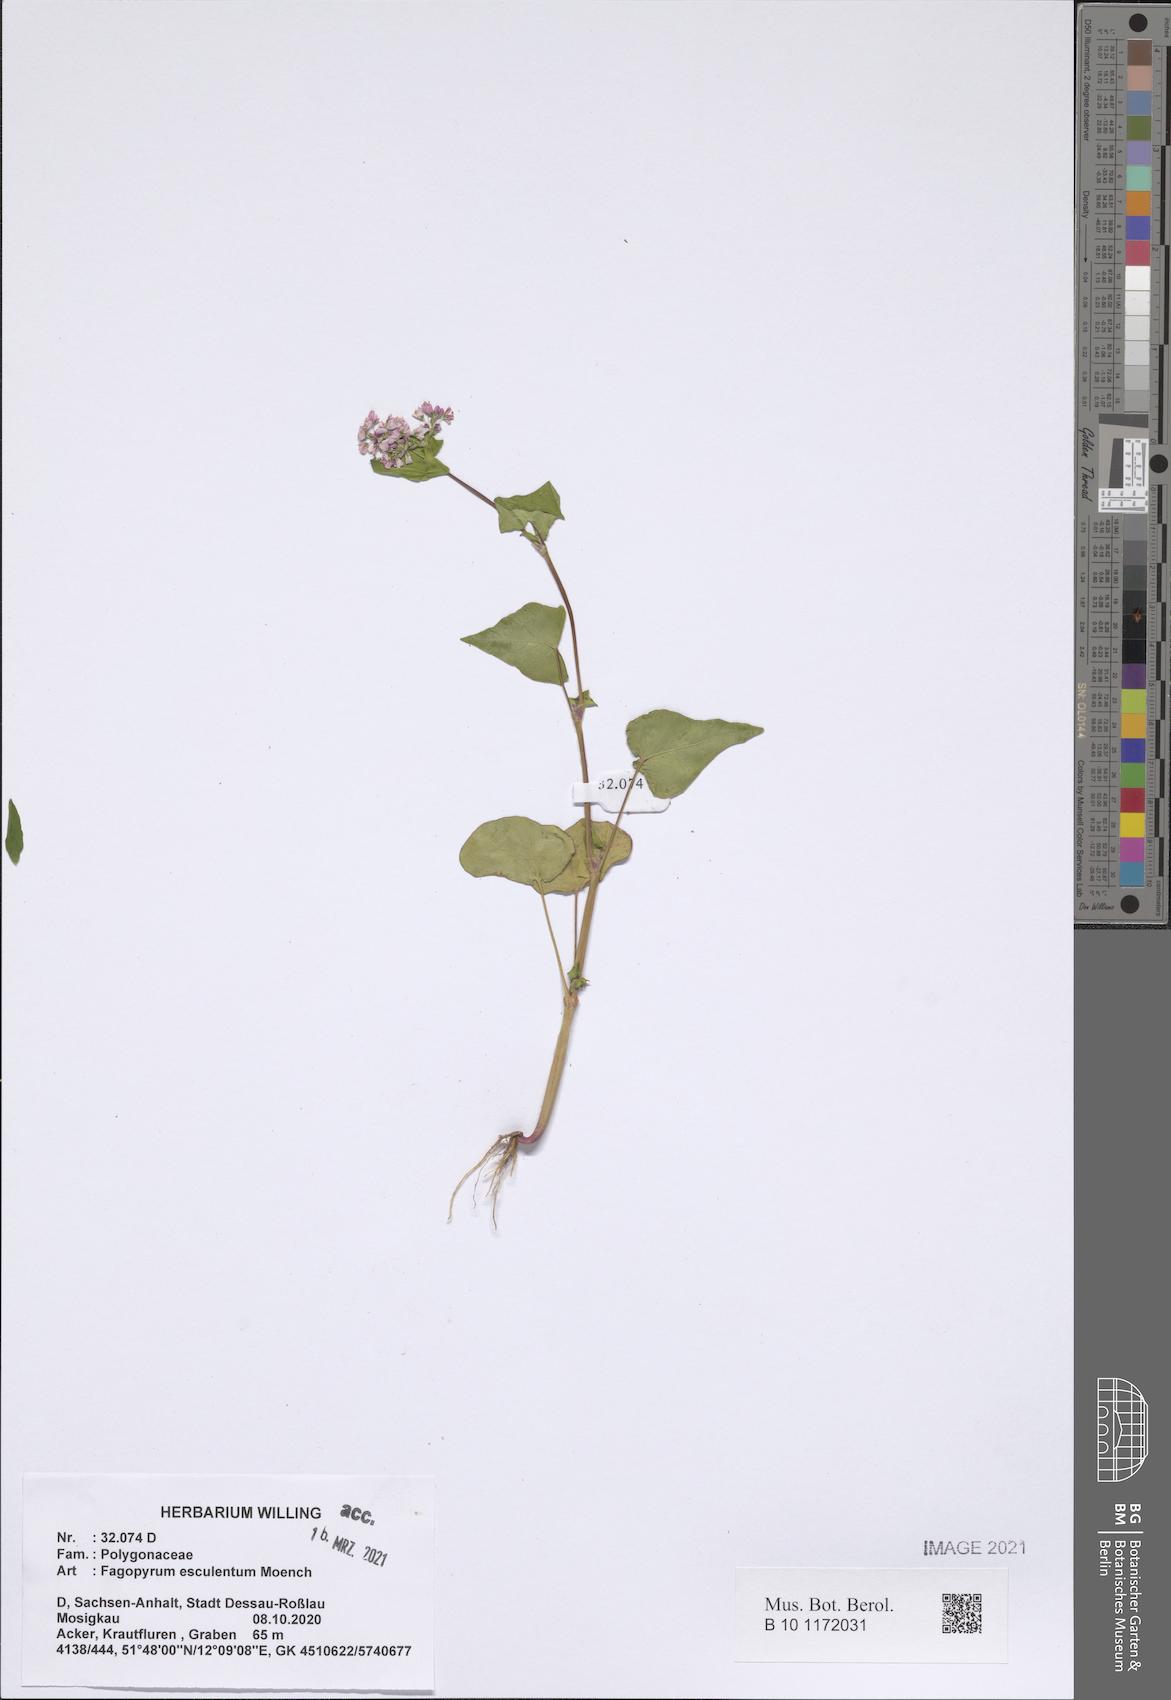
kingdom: Plantae
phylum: Tracheophyta
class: Magnoliopsida
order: Caryophyllales
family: Polygonaceae
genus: Fagopyrum
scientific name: Fagopyrum esculentum
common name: Buckwheat
